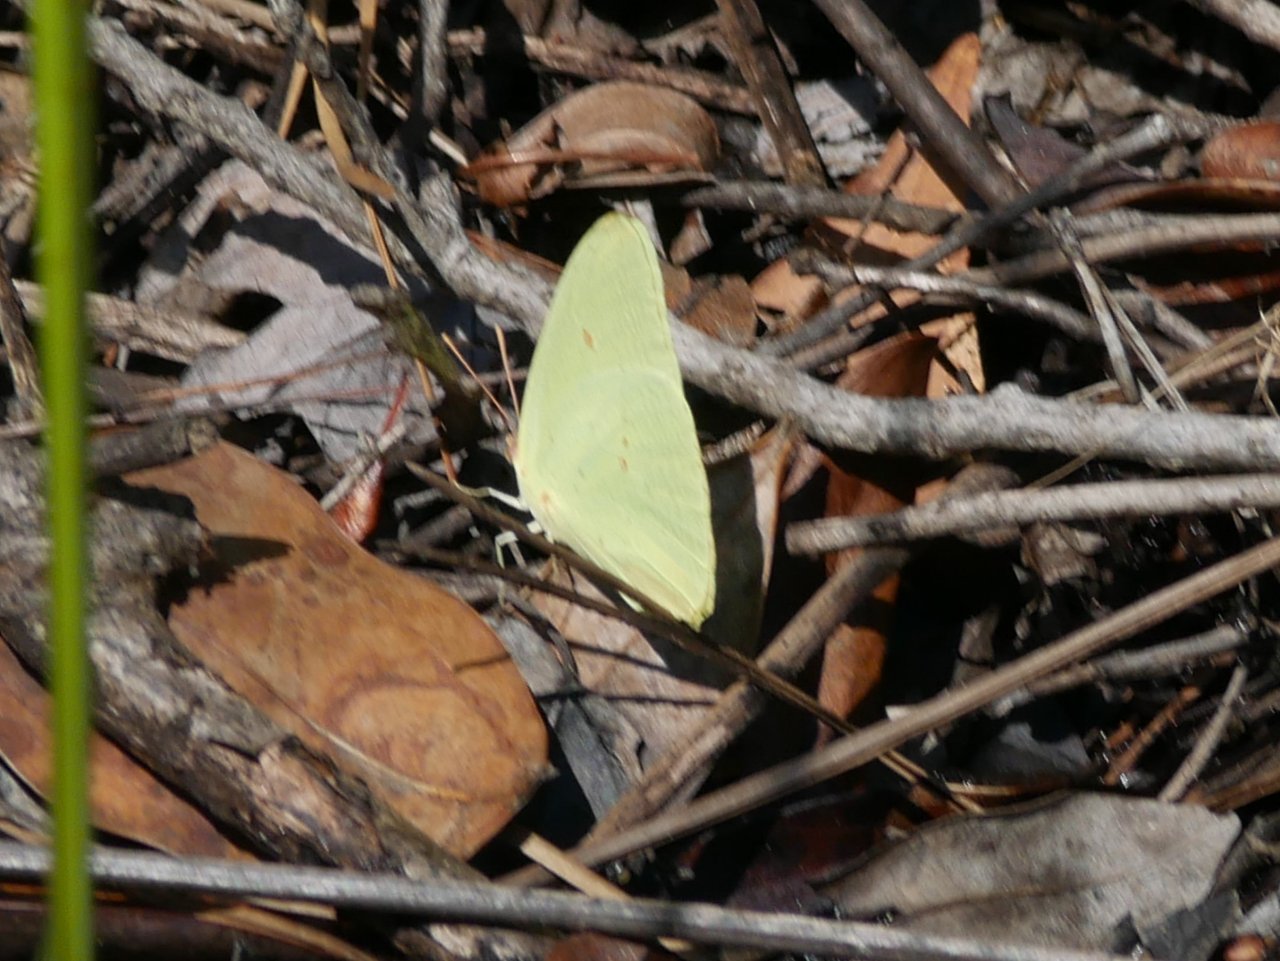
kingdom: Animalia
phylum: Arthropoda
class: Insecta
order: Lepidoptera
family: Pieridae
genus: Phoebis
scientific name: Phoebis sennae
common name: Cloudless Sulphur
